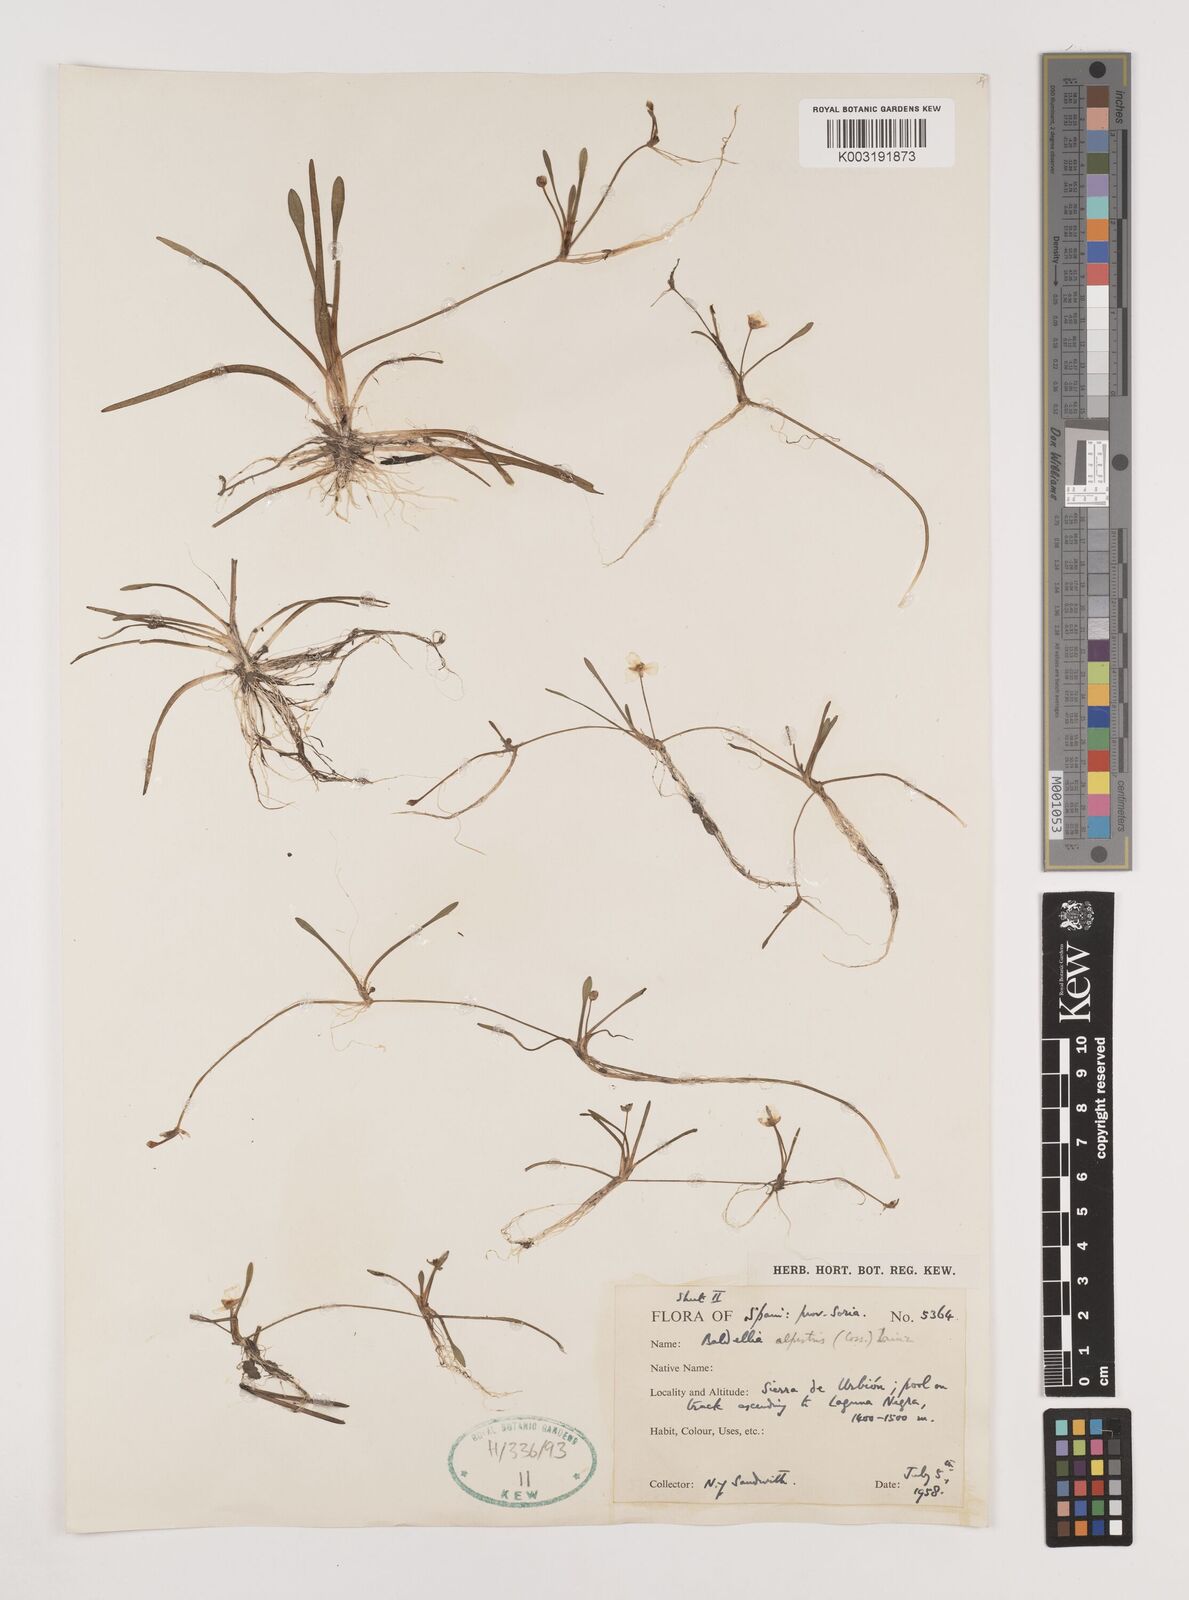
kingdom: Plantae
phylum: Tracheophyta
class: Liliopsida
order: Alismatales
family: Alismataceae
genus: Baldellia
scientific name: Baldellia alpestris
